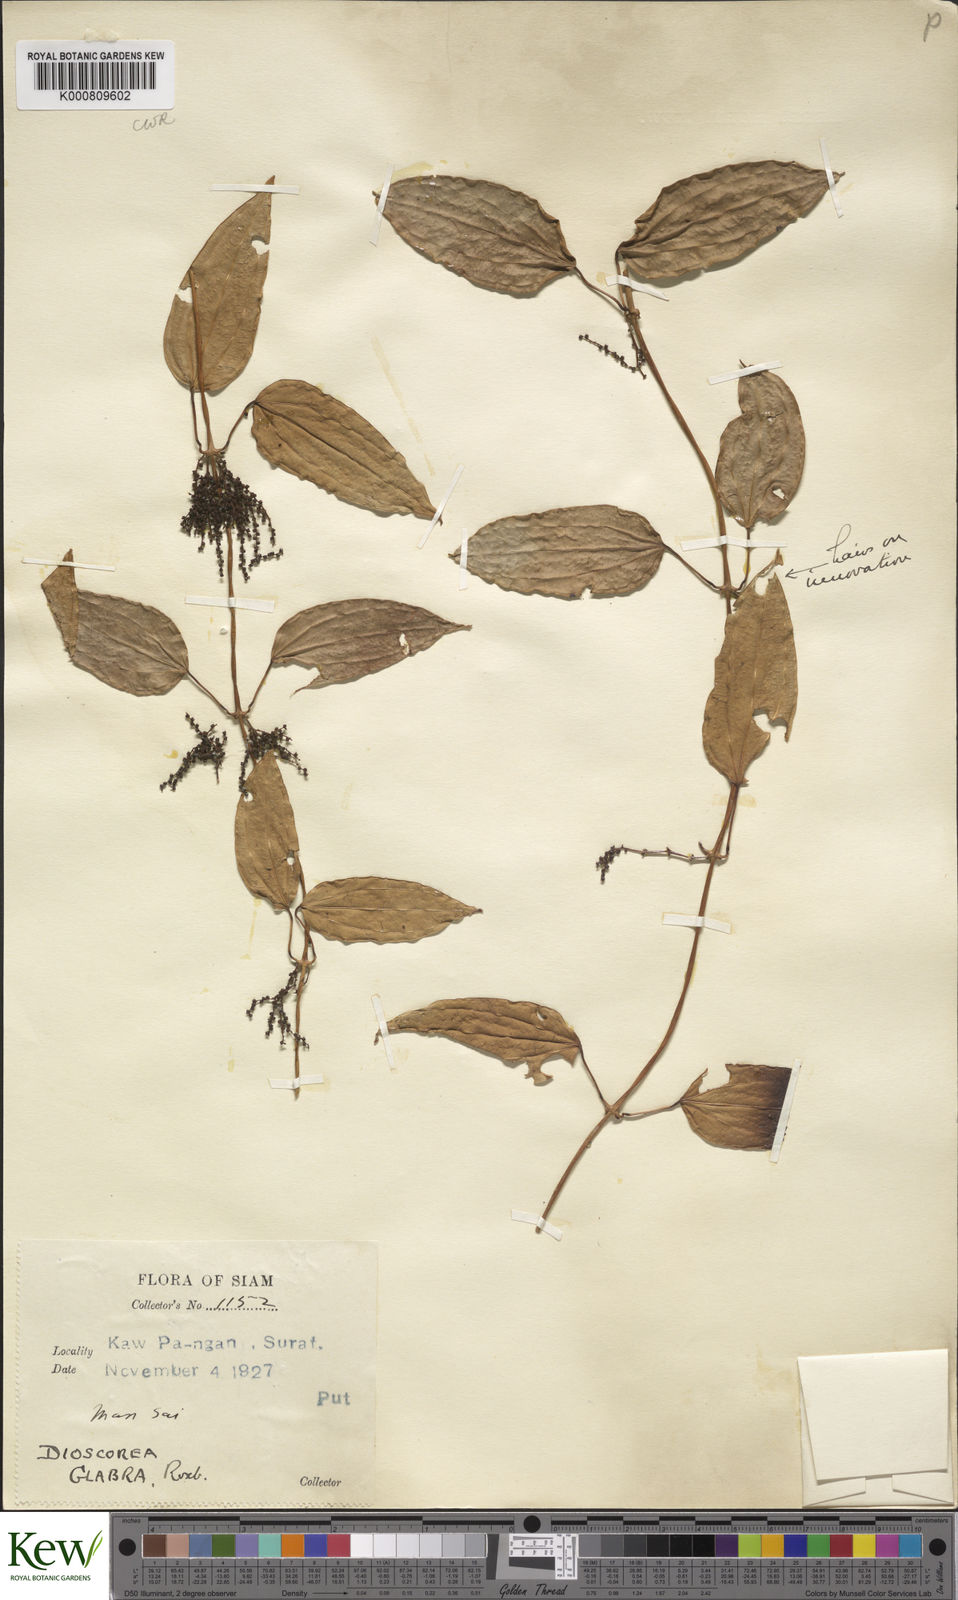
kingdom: Plantae
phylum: Tracheophyta
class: Liliopsida
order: Dioscoreales
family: Dioscoreaceae
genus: Dioscorea
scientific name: Dioscorea glabra
